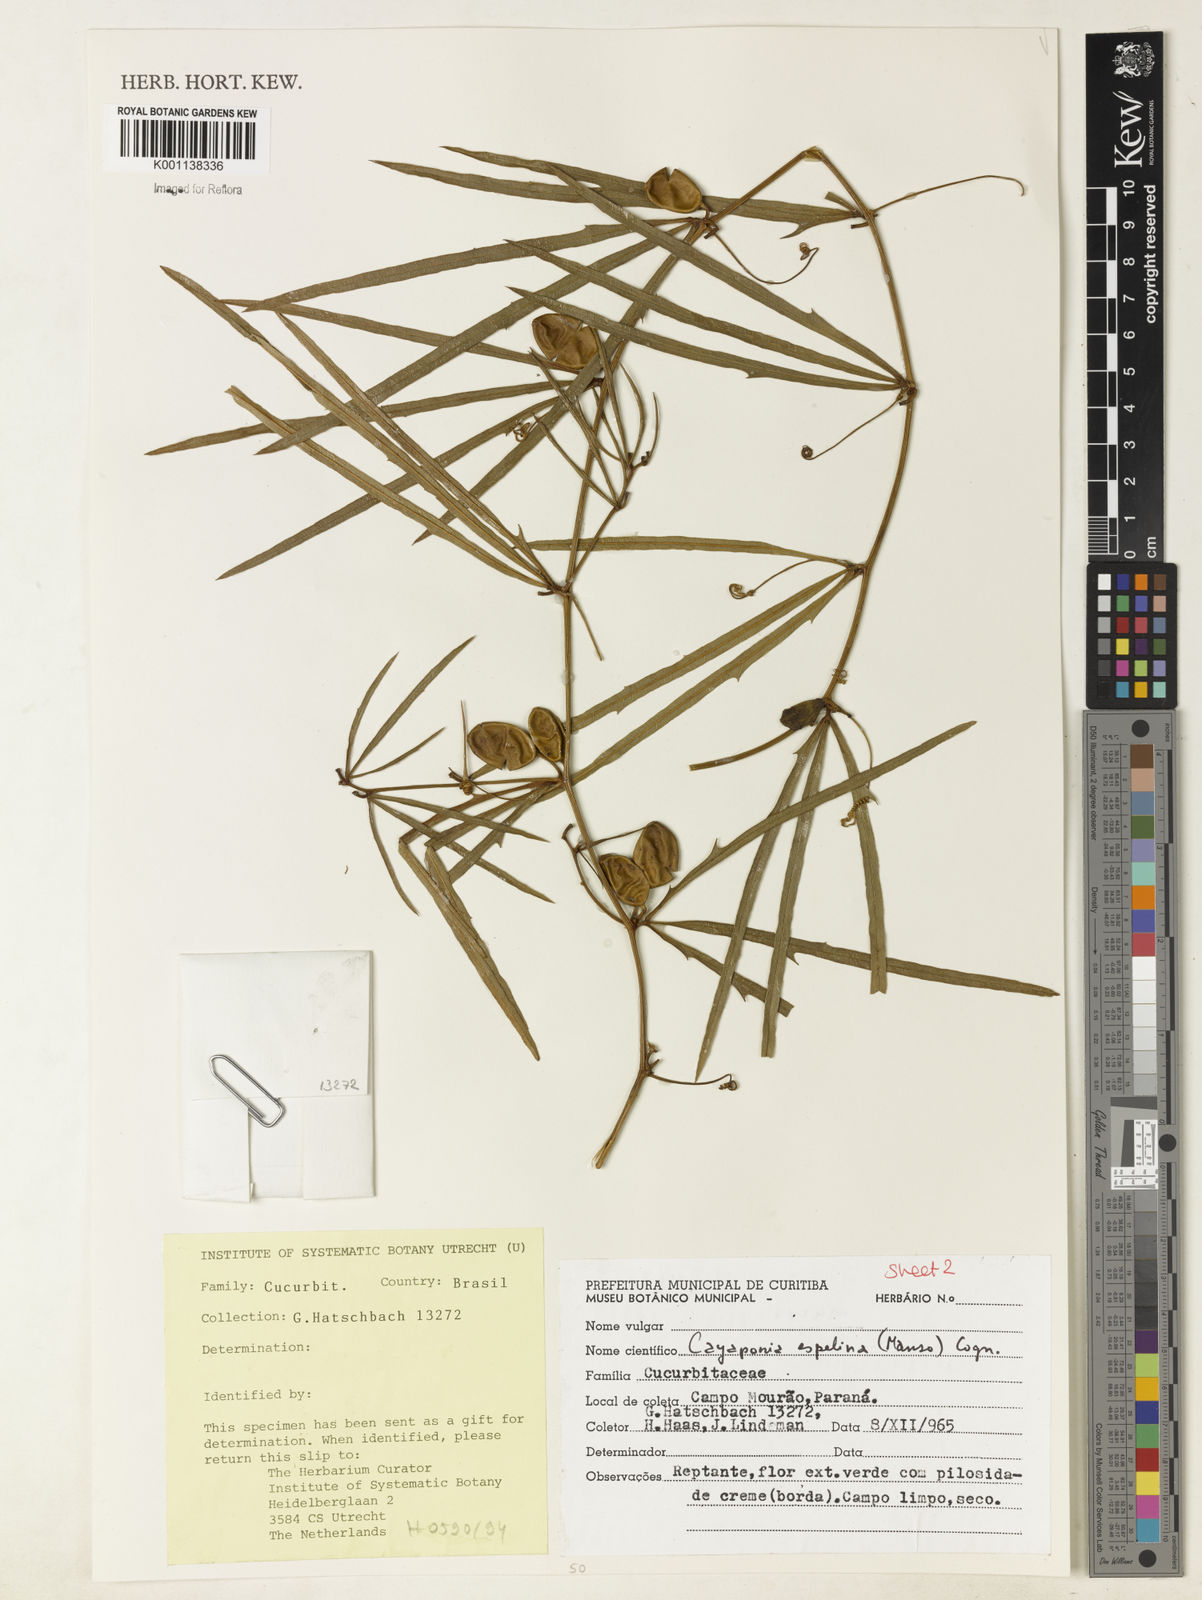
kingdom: Plantae
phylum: Tracheophyta
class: Magnoliopsida
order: Cucurbitales
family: Cucurbitaceae
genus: Cayaponia
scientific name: Cayaponia espelina
